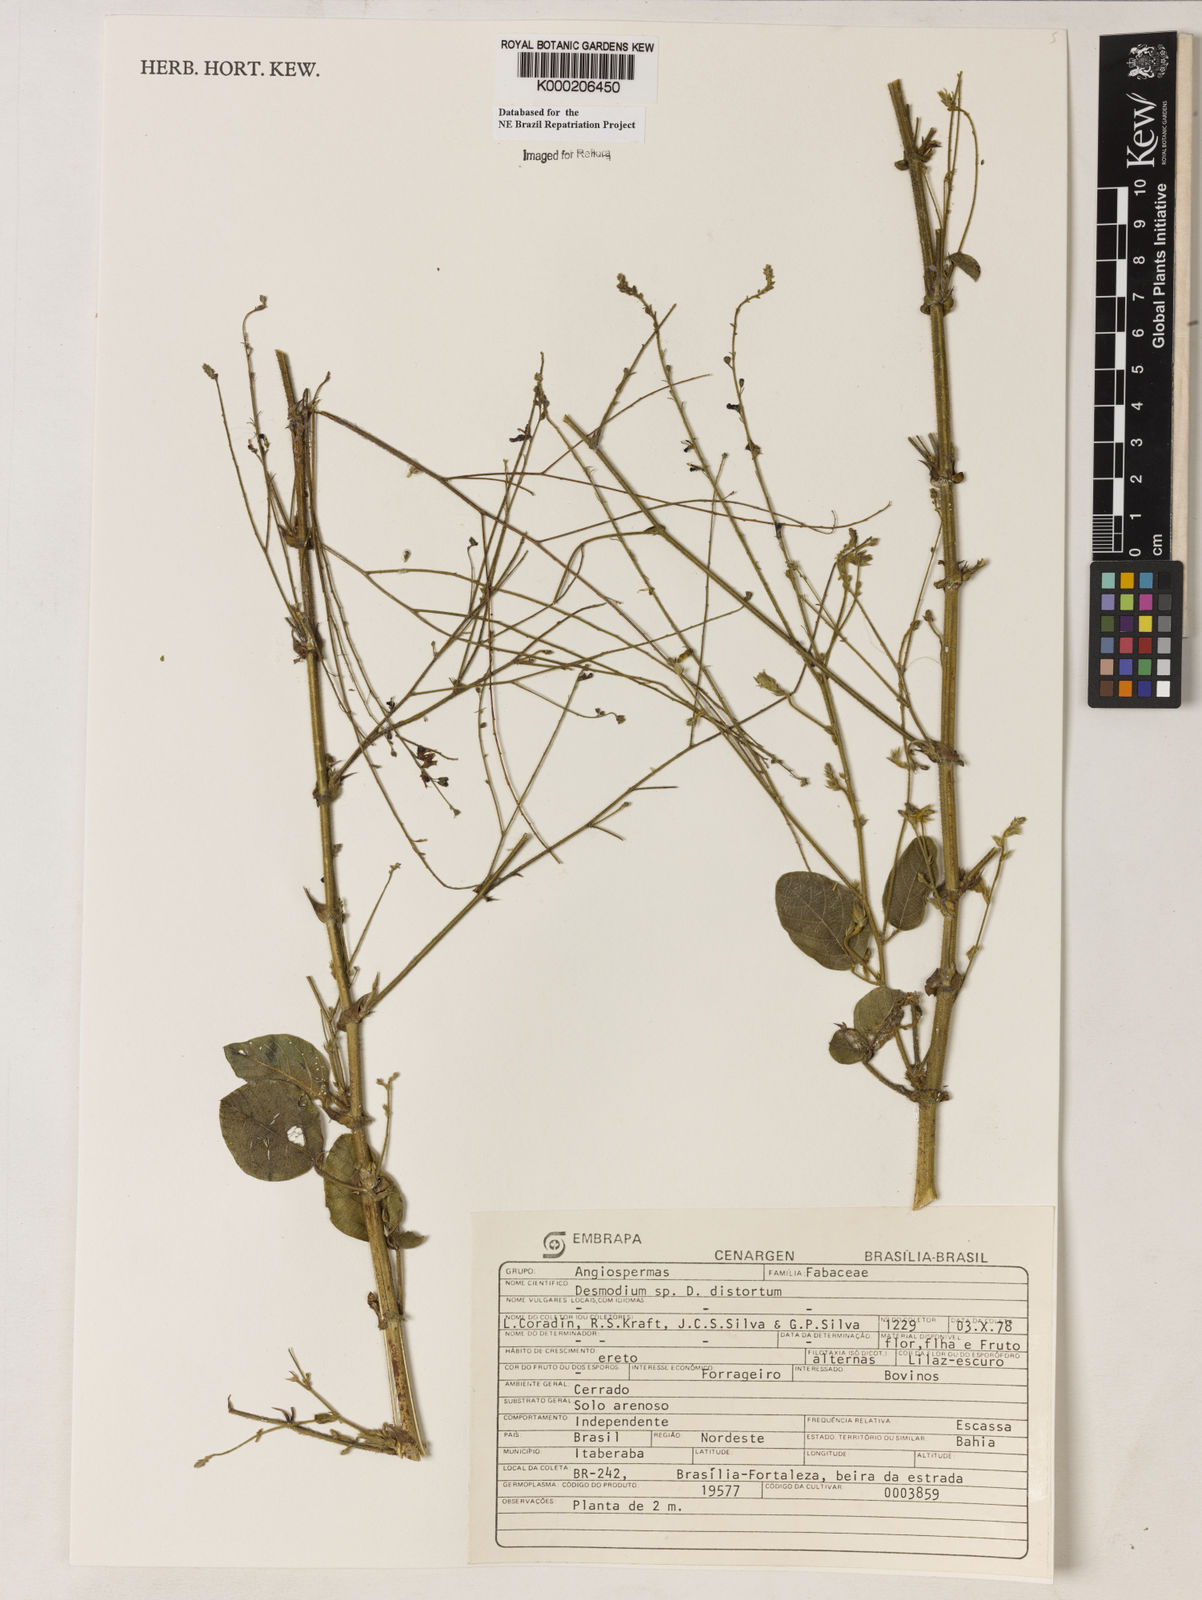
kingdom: Plantae
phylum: Tracheophyta
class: Magnoliopsida
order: Fabales
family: Fabaceae
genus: Desmodium
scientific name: Desmodium distortum
